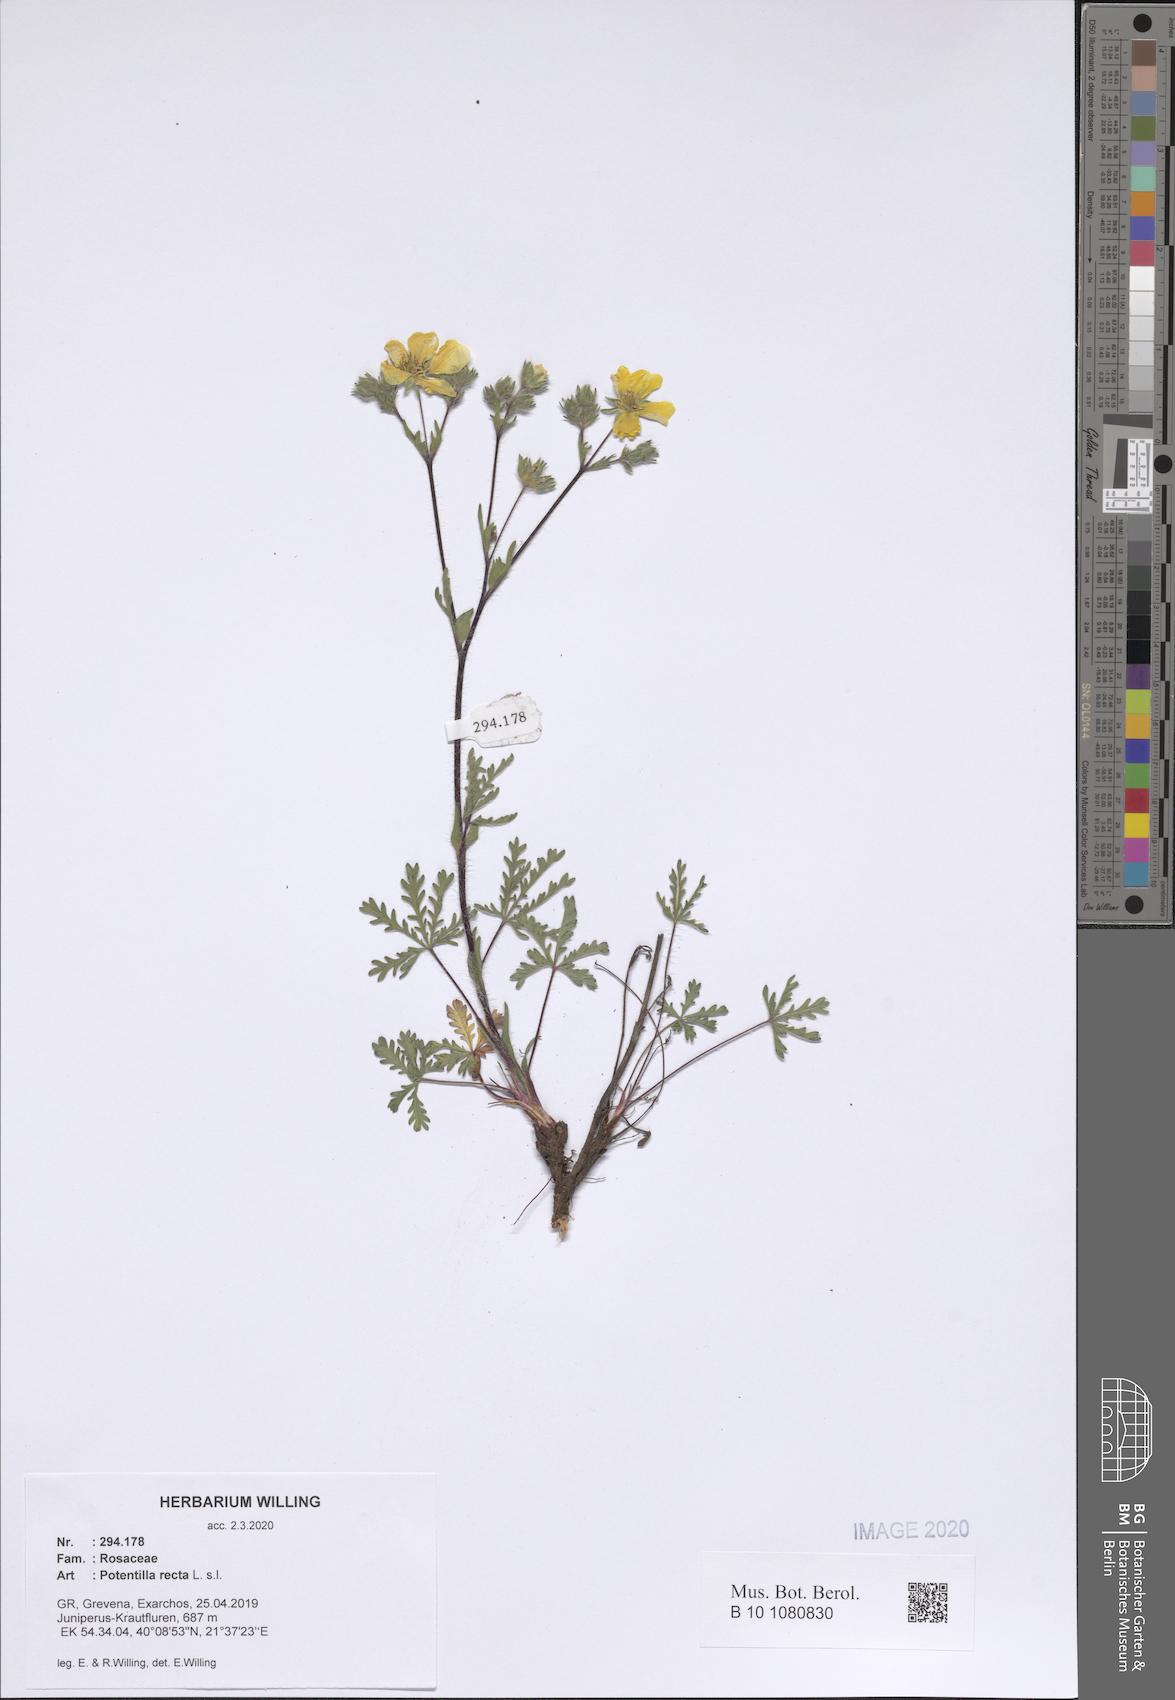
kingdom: Plantae
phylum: Tracheophyta
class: Magnoliopsida
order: Rosales
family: Rosaceae
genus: Potentilla
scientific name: Potentilla recta
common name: Sulphur cinquefoil
